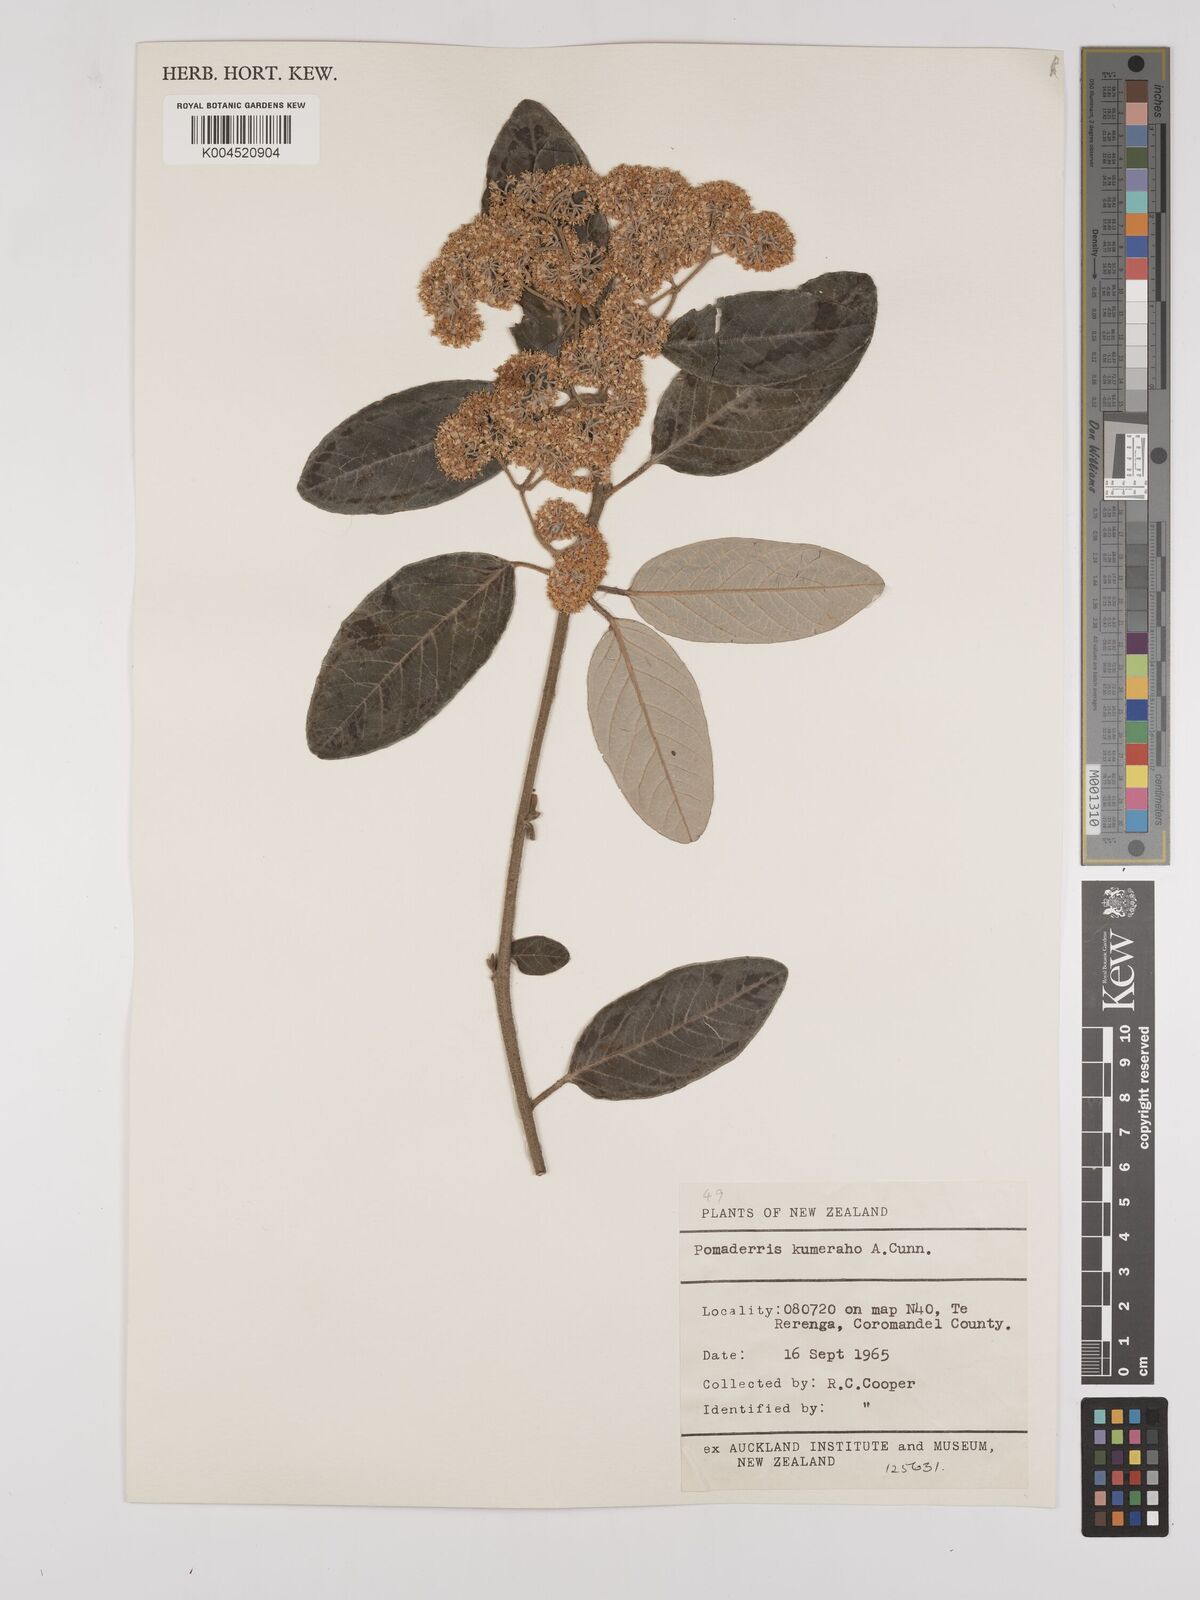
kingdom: Plantae
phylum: Tracheophyta
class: Magnoliopsida
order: Rosales
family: Rhamnaceae
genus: Pomaderris
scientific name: Pomaderris kumeraho
